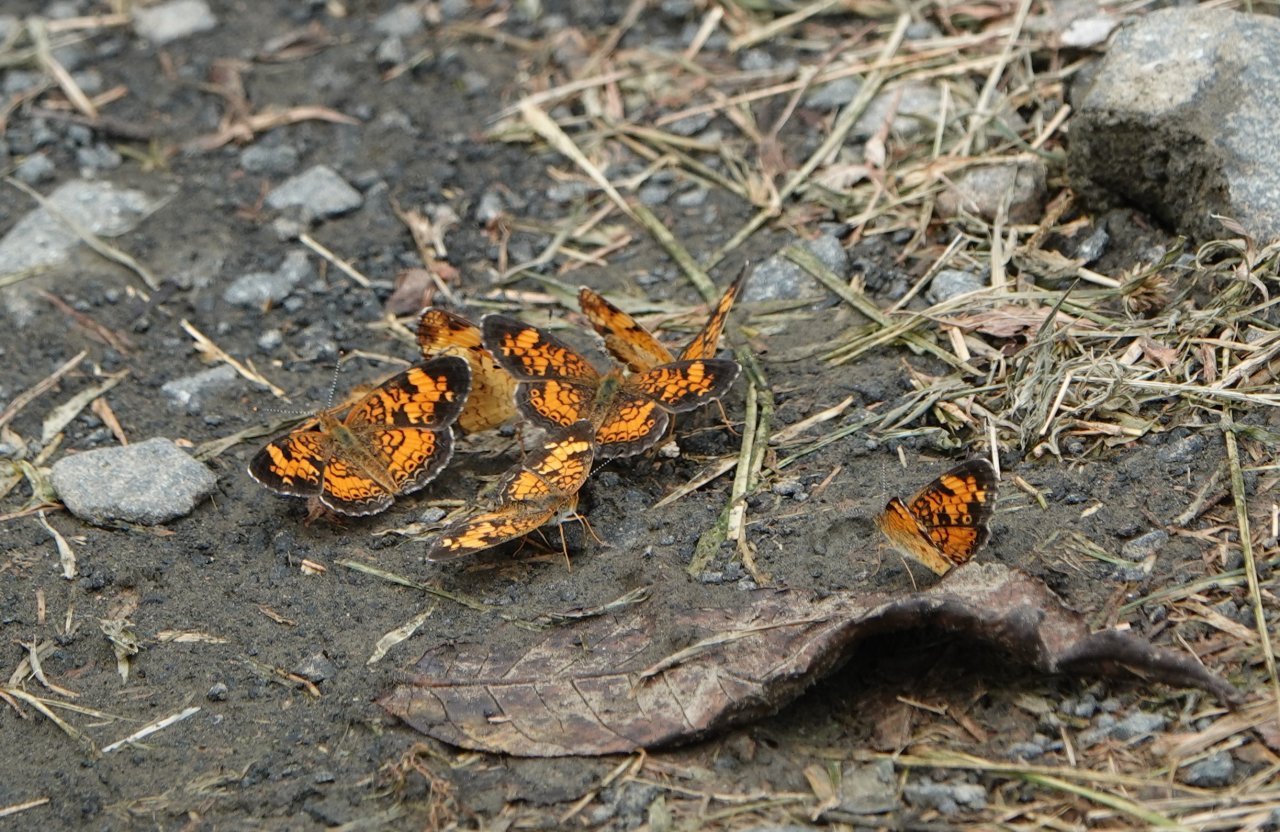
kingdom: Animalia
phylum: Arthropoda
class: Insecta
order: Lepidoptera
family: Nymphalidae
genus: Phyciodes
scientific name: Phyciodes tharos
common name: Pearl Crescent
